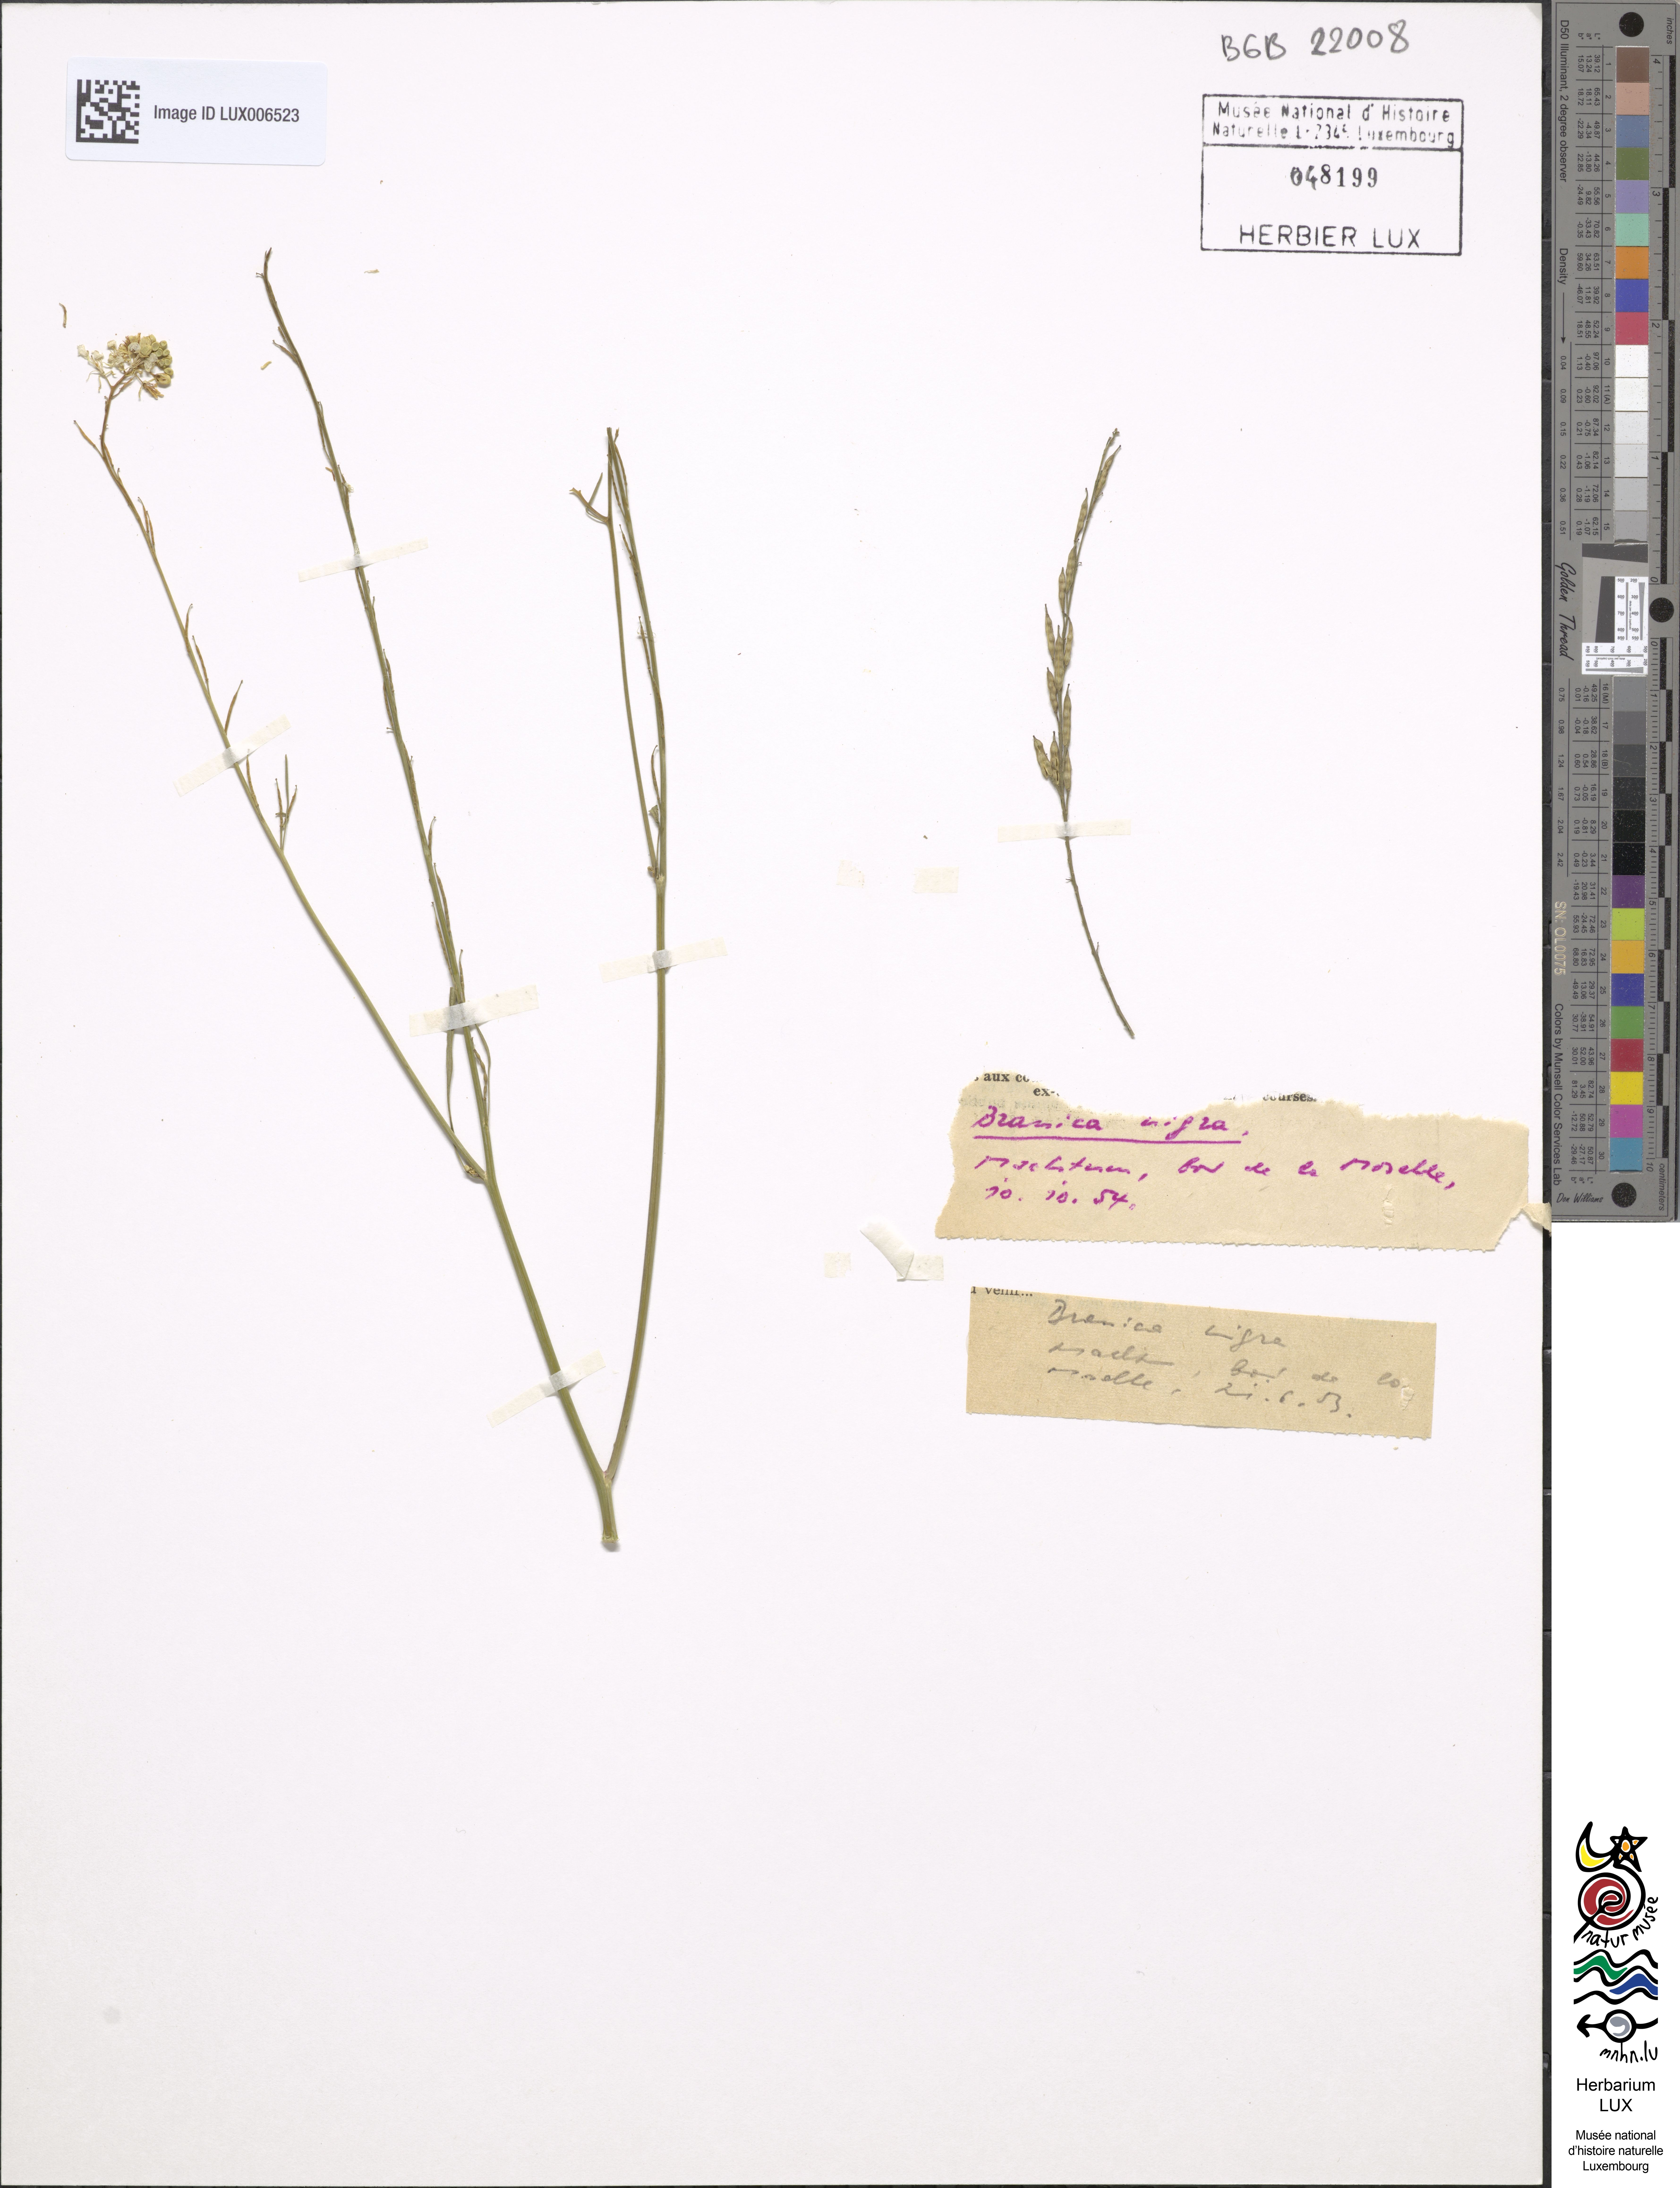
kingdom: Plantae
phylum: Tracheophyta
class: Magnoliopsida
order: Brassicales
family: Brassicaceae
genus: Brassica
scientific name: Brassica nigra
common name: Black mustard
